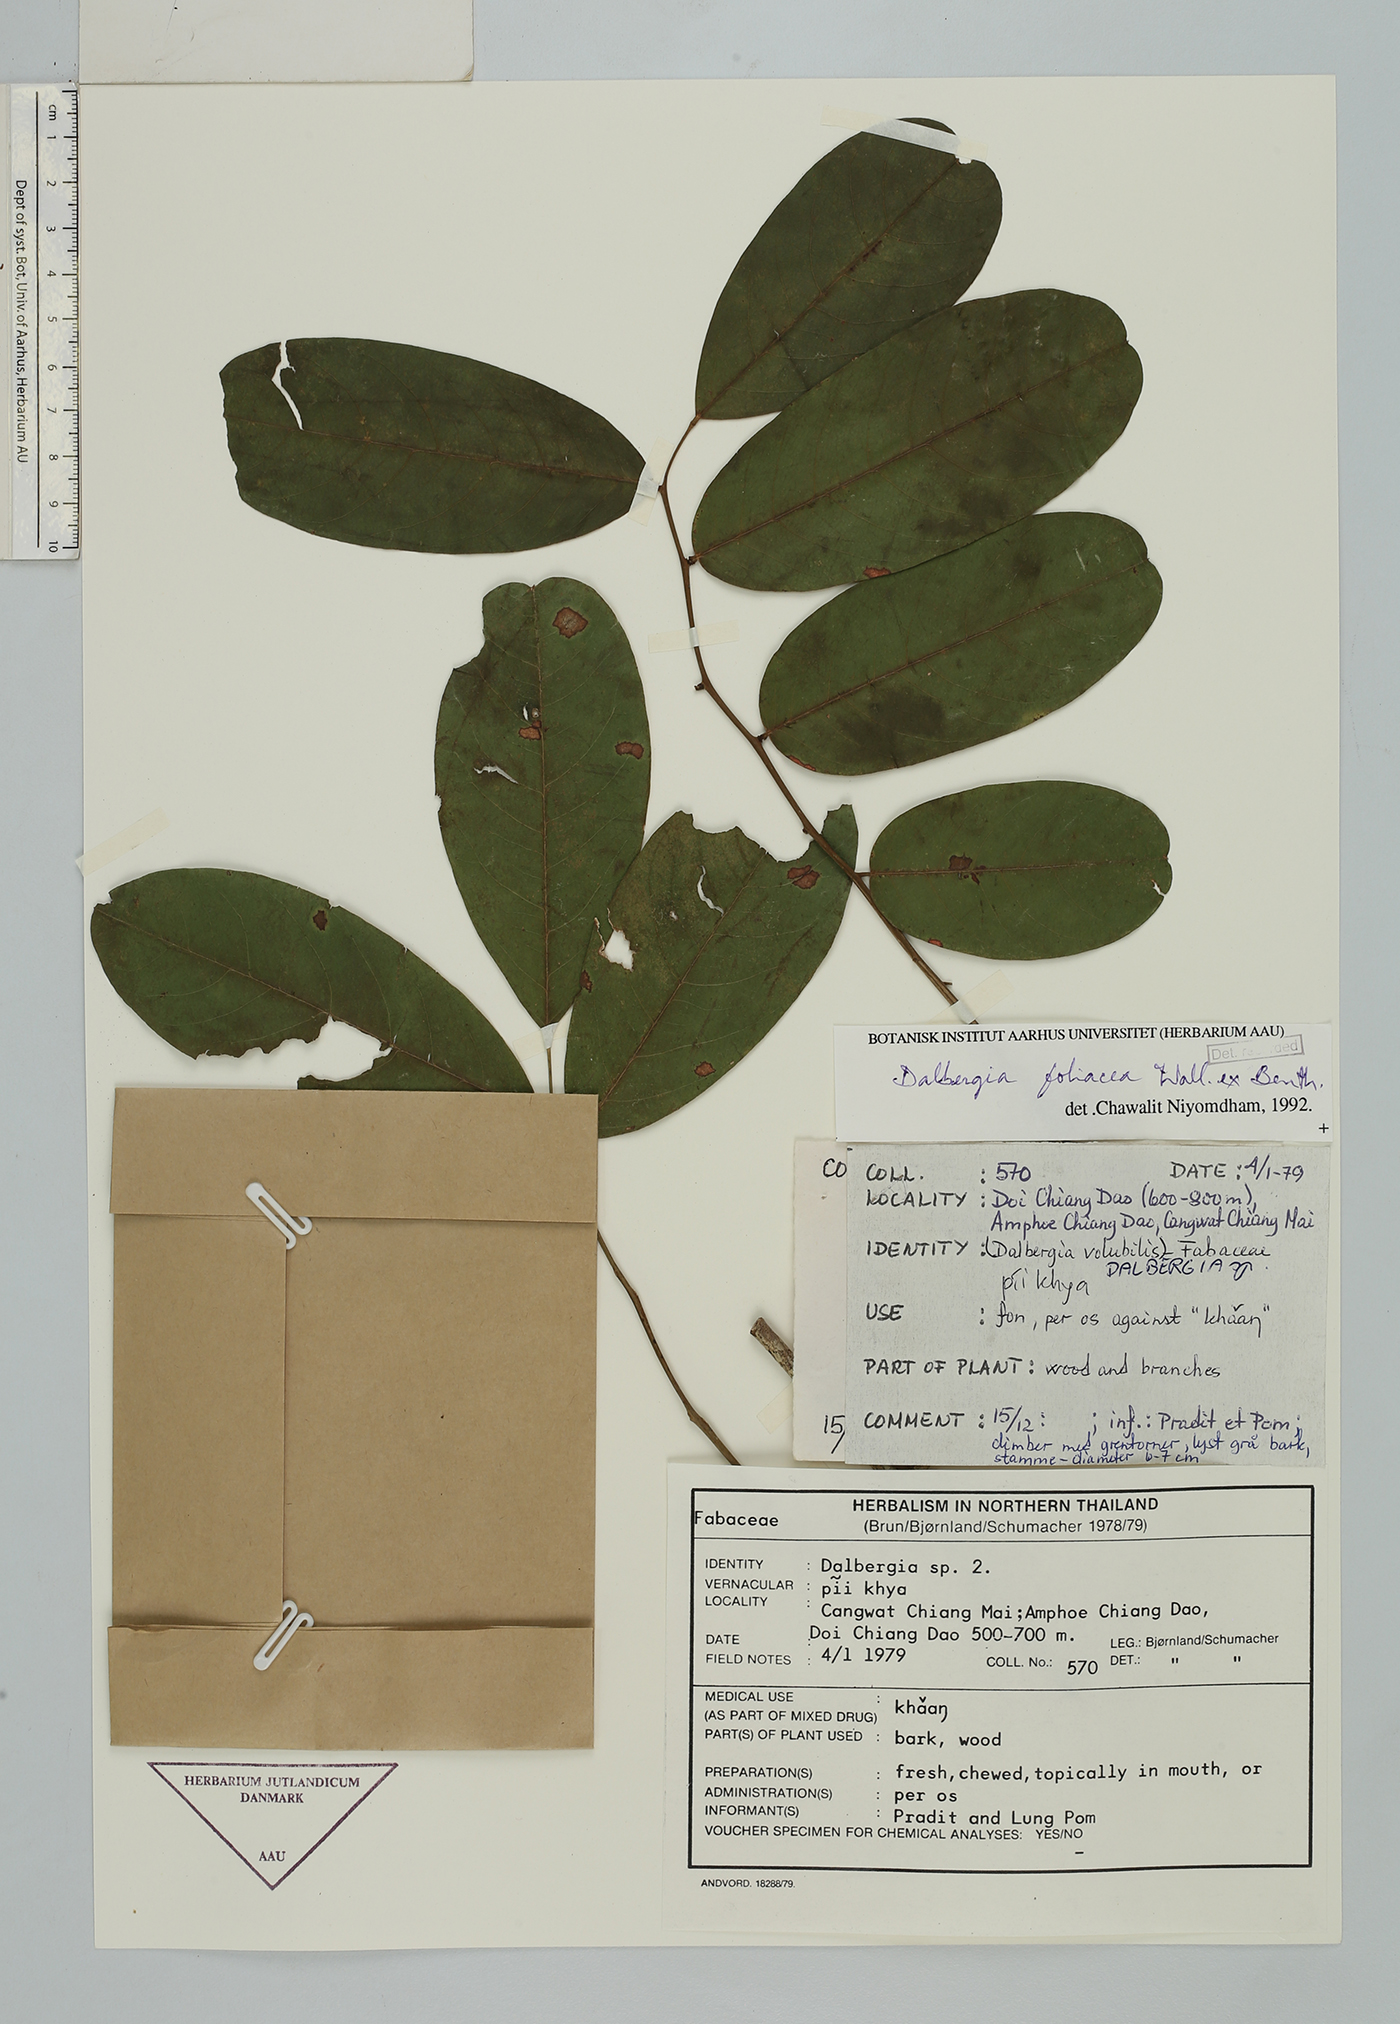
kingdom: Plantae
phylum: Tracheophyta
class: Magnoliopsida
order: Fabales
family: Fabaceae
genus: Dalbergia
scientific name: Dalbergia foliosa
